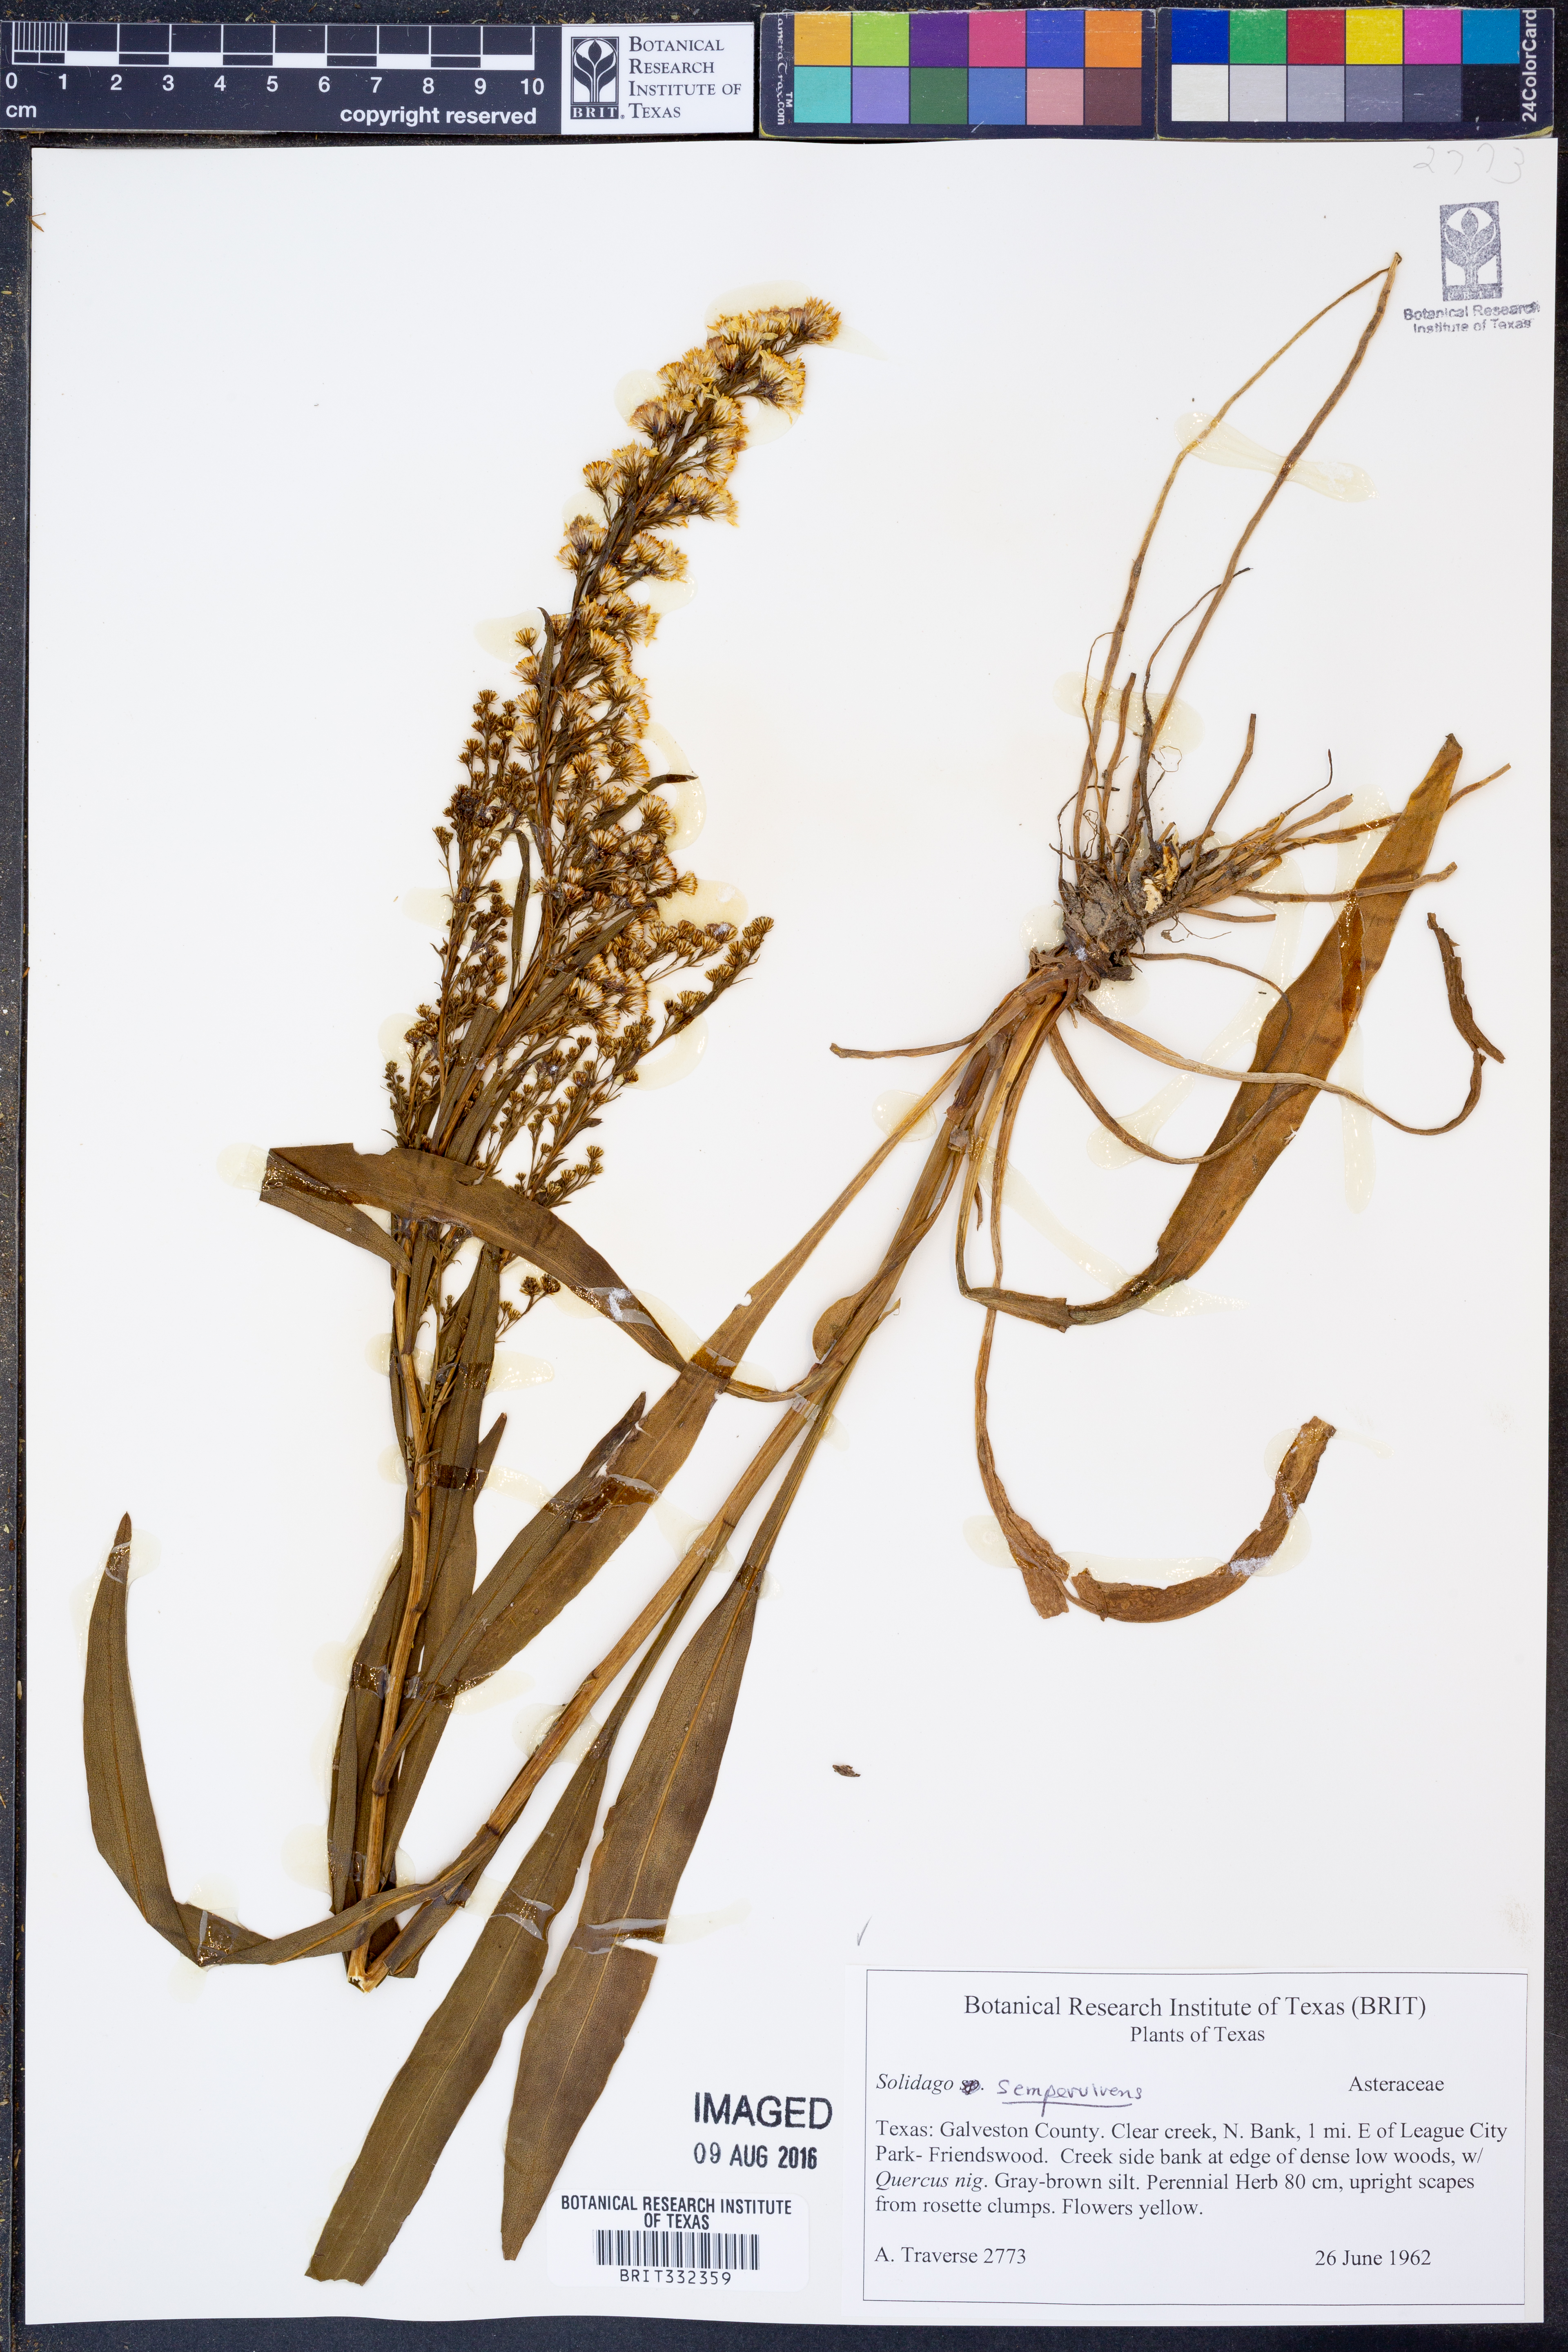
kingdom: Plantae
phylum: Tracheophyta
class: Magnoliopsida
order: Asterales
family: Asteraceae
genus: Solidago
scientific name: Solidago sempervirens
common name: Salt-marsh goldenrod
